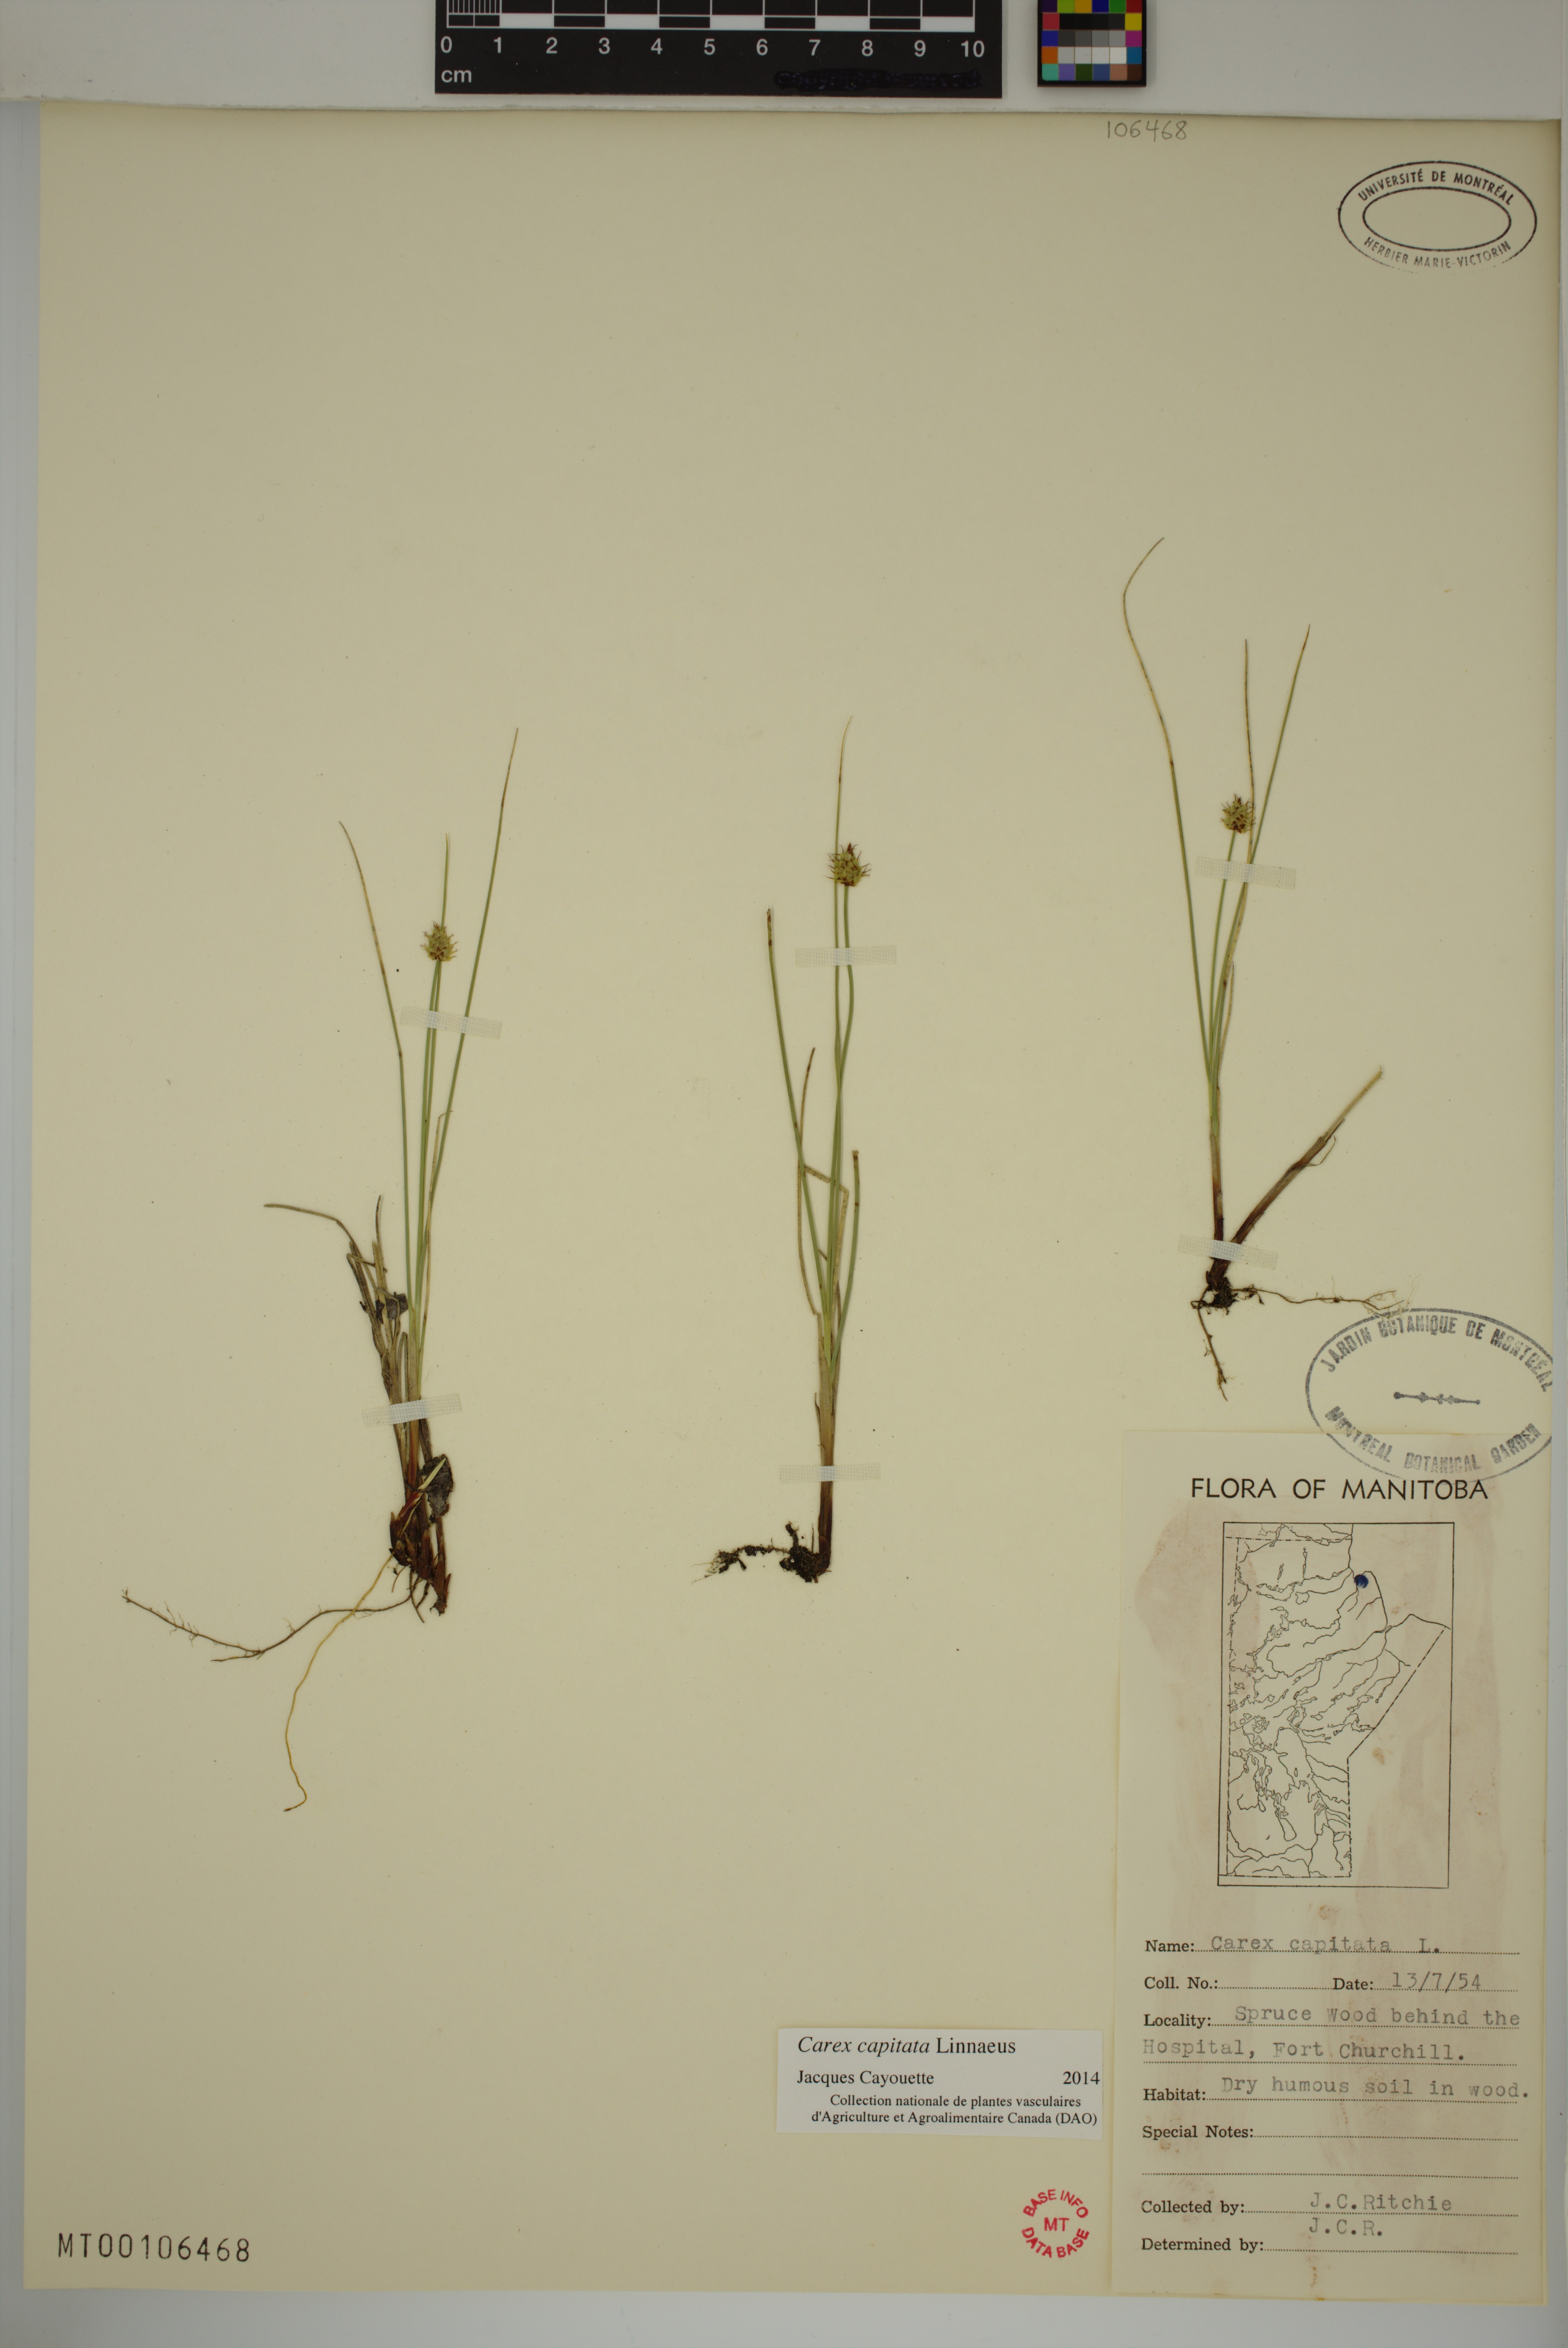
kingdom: Plantae
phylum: Tracheophyta
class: Liliopsida
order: Poales
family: Cyperaceae
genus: Carex
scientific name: Carex capitata
